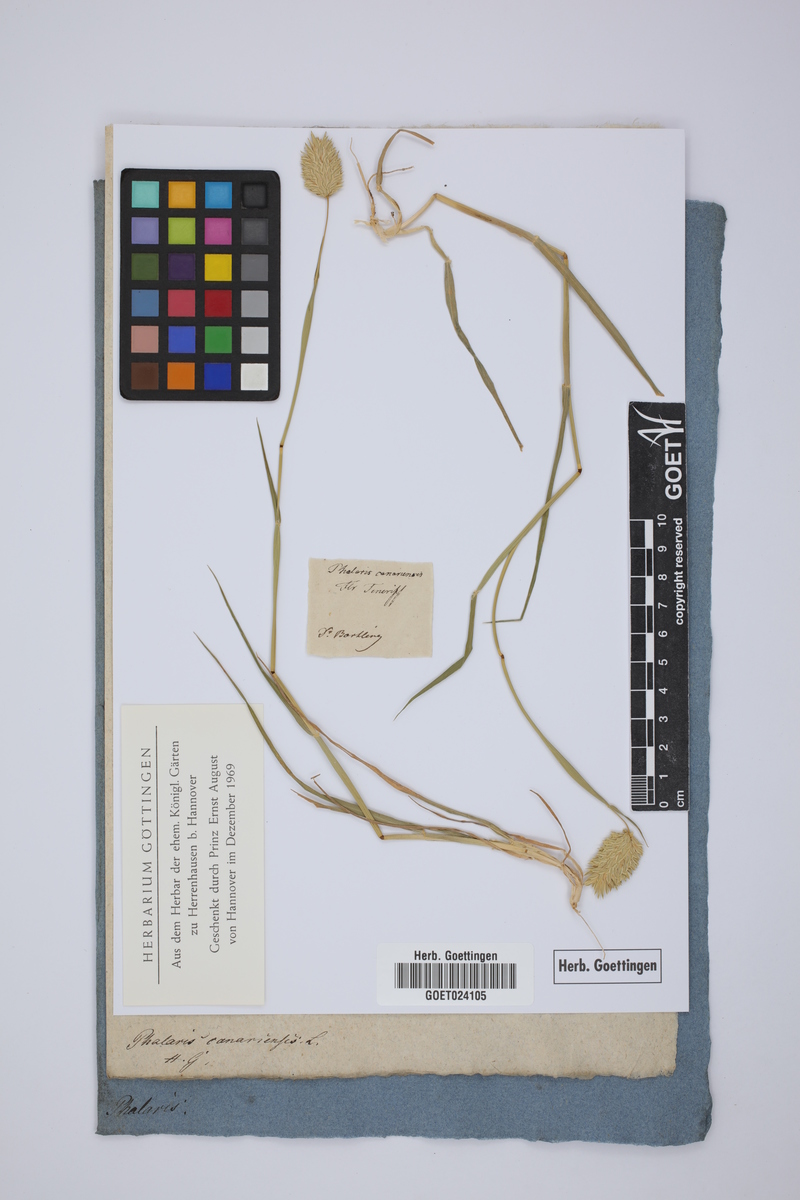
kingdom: Plantae
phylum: Tracheophyta
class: Liliopsida
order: Poales
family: Poaceae
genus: Phalaris
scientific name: Phalaris canariensis
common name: Annual canarygrass
